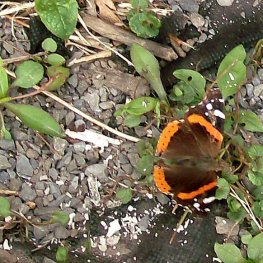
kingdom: Animalia
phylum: Arthropoda
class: Insecta
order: Lepidoptera
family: Nymphalidae
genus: Vanessa
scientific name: Vanessa atalanta
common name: Red Admiral
